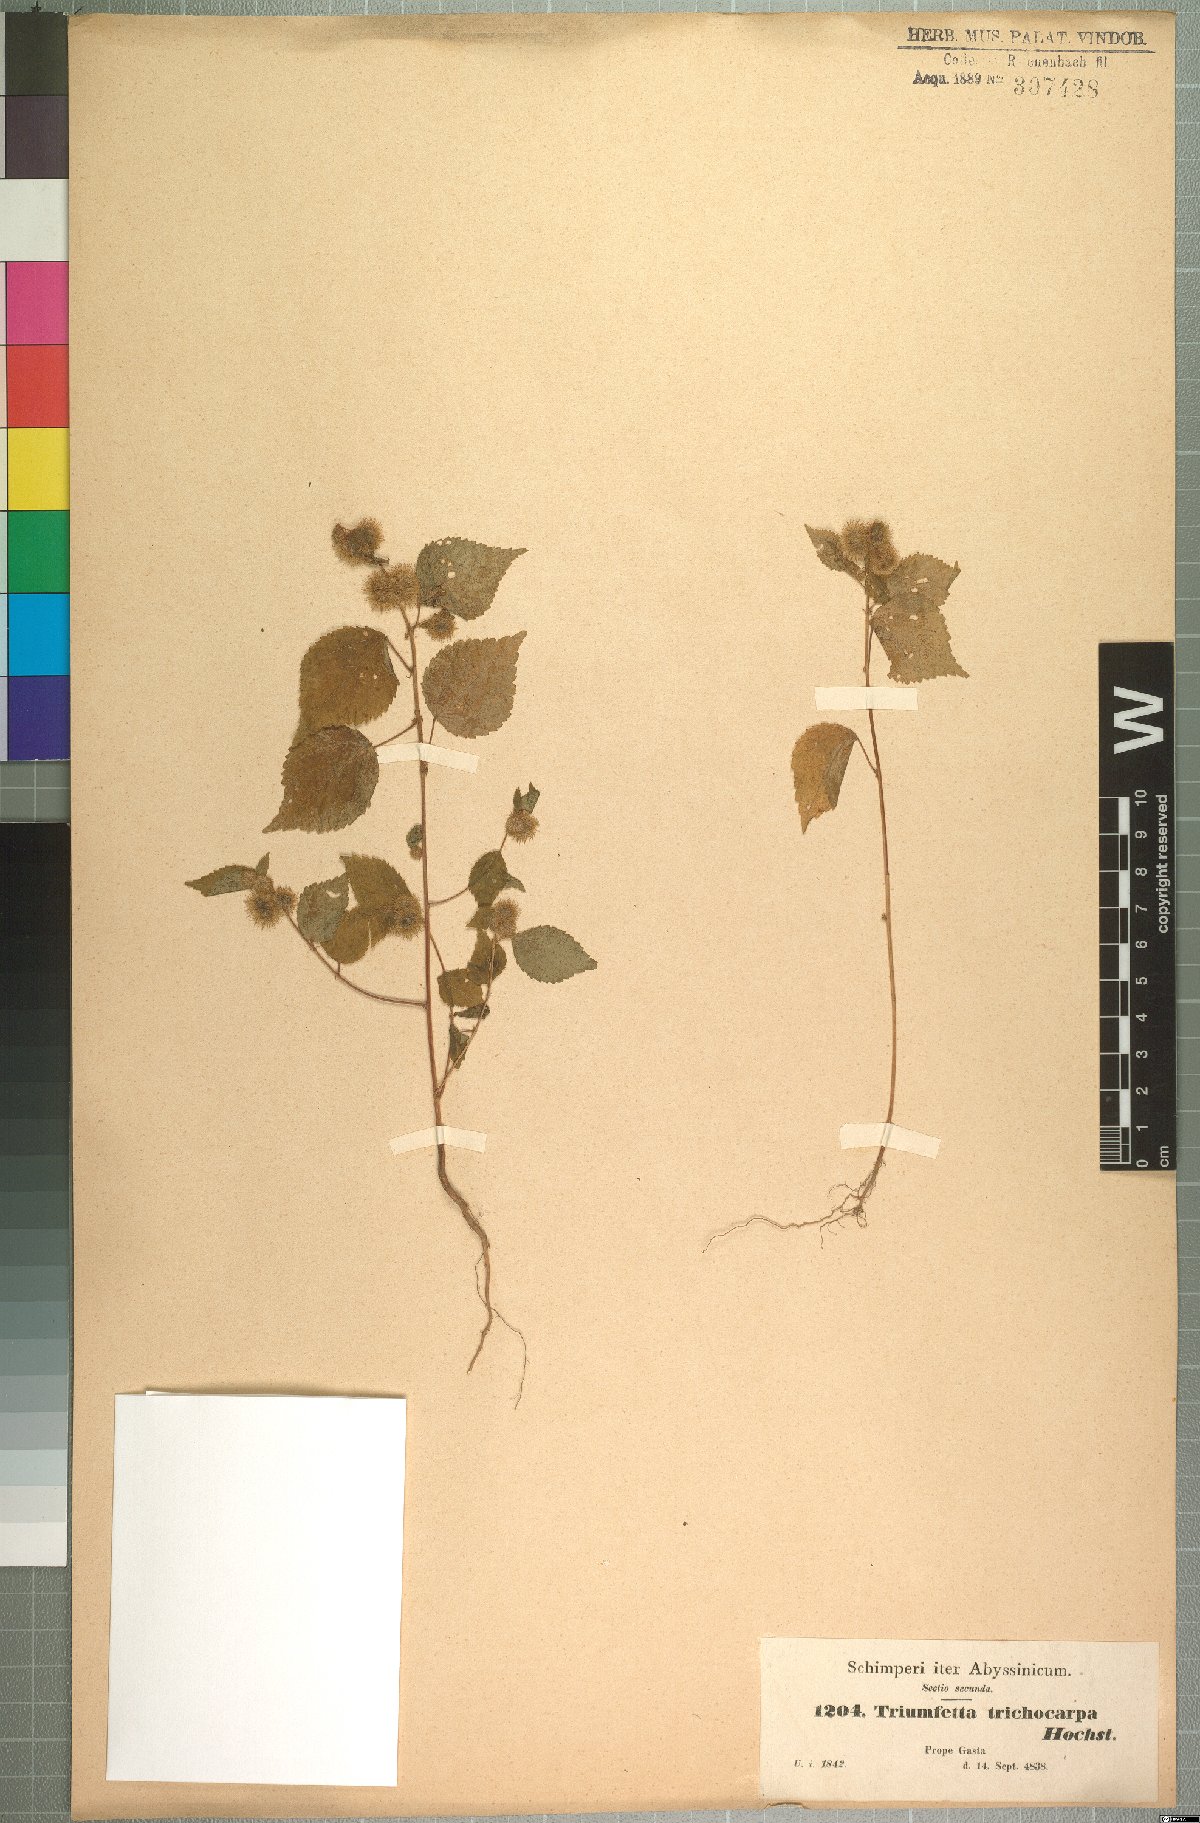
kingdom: Plantae
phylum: Tracheophyta
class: Magnoliopsida
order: Malvales
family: Malvaceae
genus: Triumfetta
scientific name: Triumfetta trichocarpa
